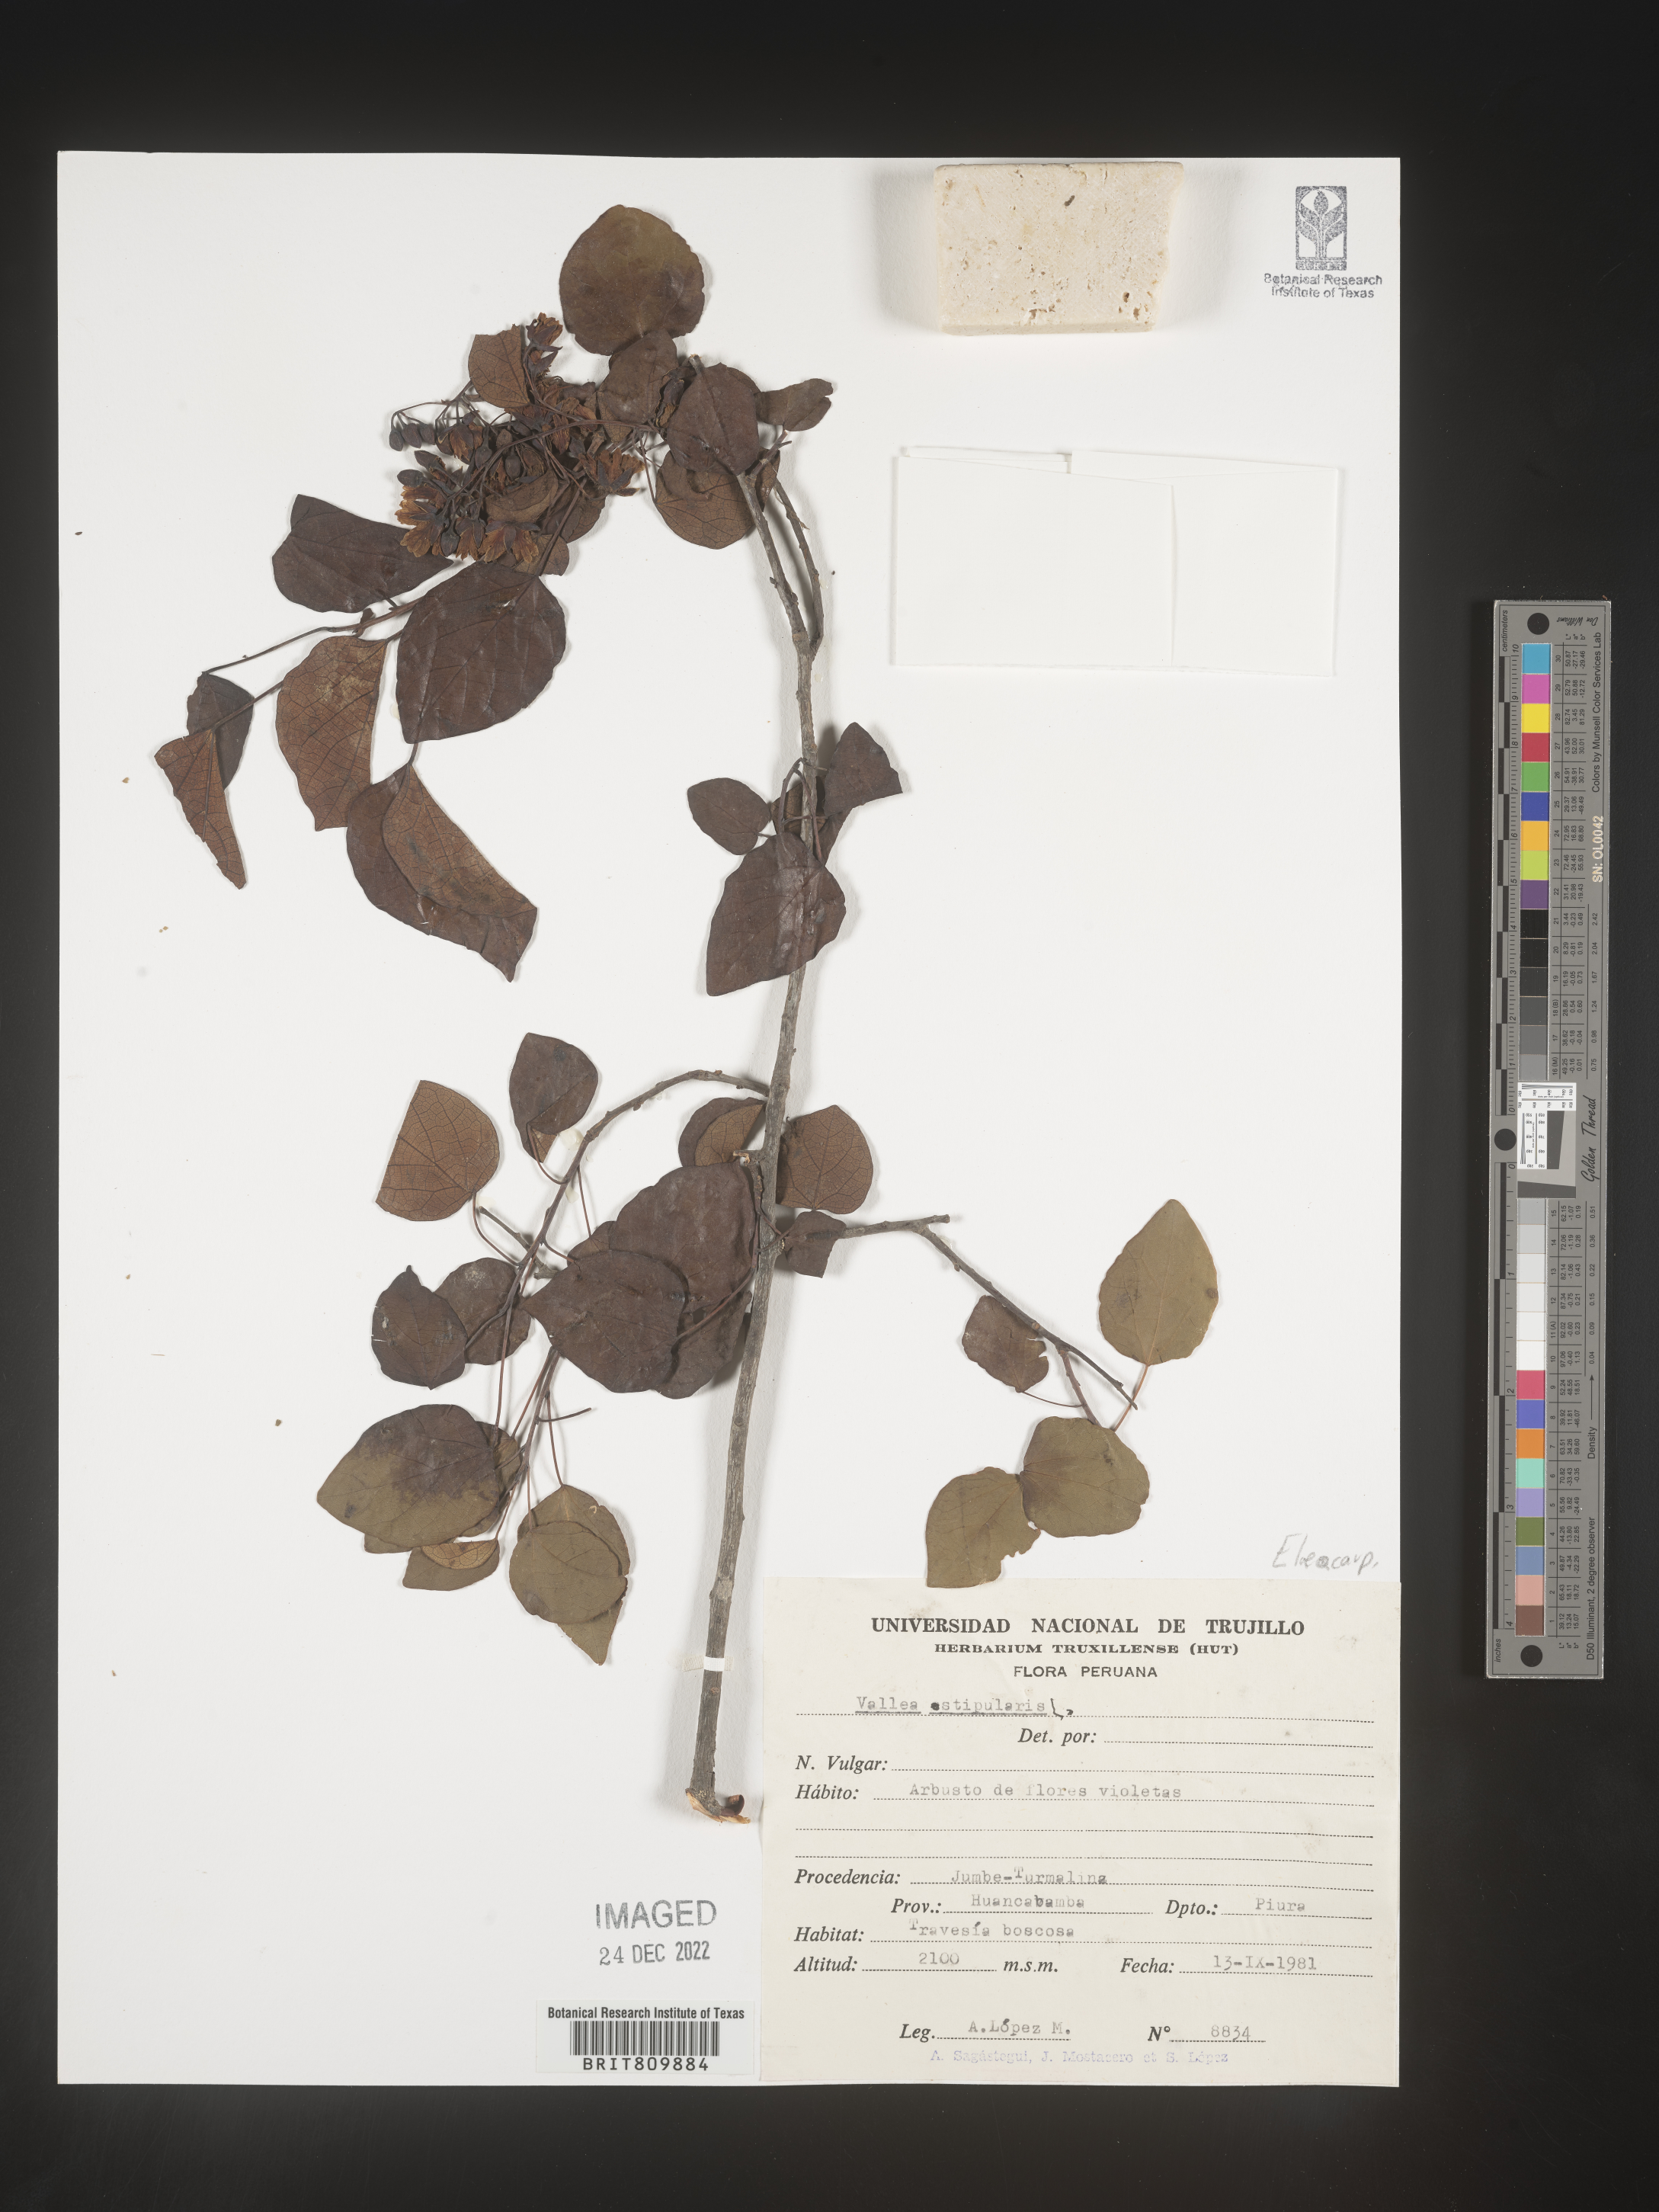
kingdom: Plantae
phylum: Tracheophyta
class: Magnoliopsida
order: Oxalidales
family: Elaeocarpaceae
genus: Vallea
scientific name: Vallea
